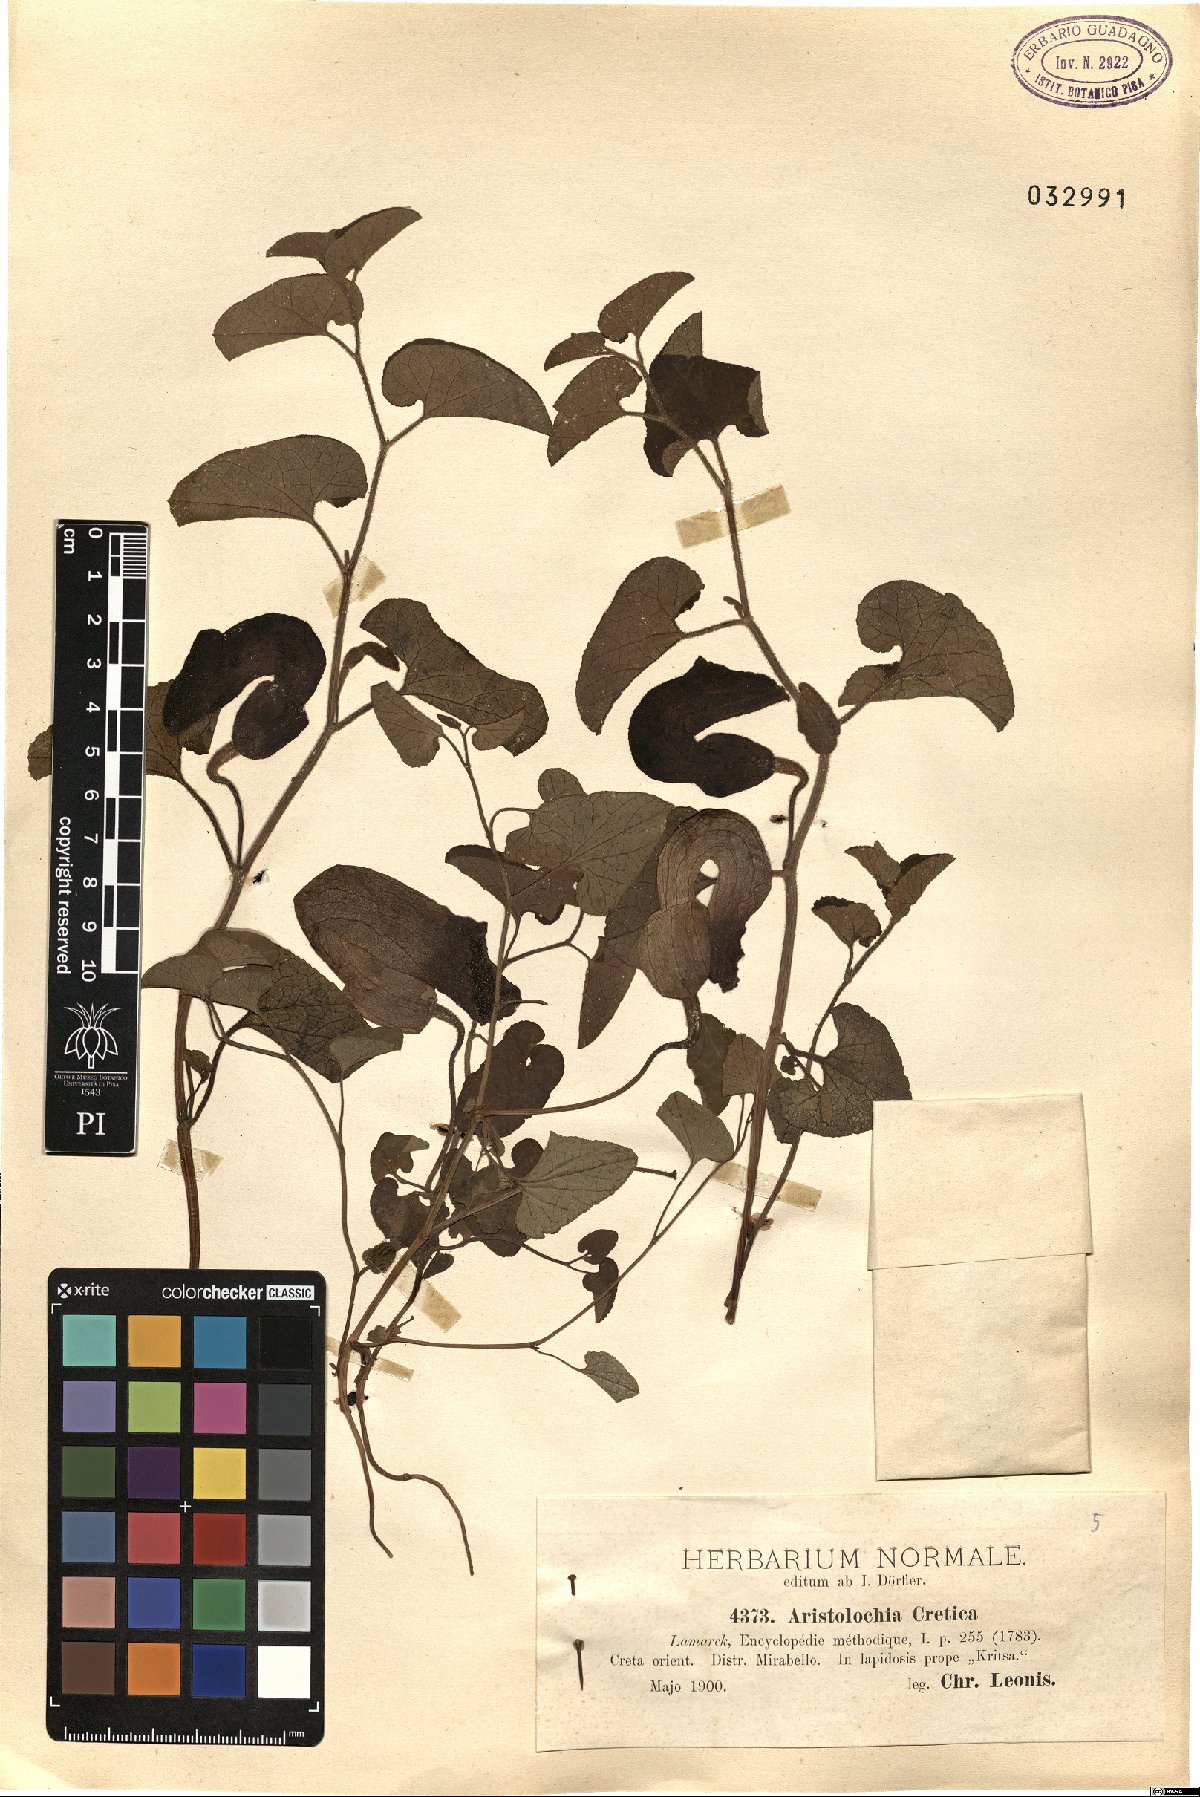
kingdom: Plantae
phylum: Tracheophyta
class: Magnoliopsida
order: Piperales
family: Aristolochiaceae
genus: Aristolochia
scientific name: Aristolochia cretica
